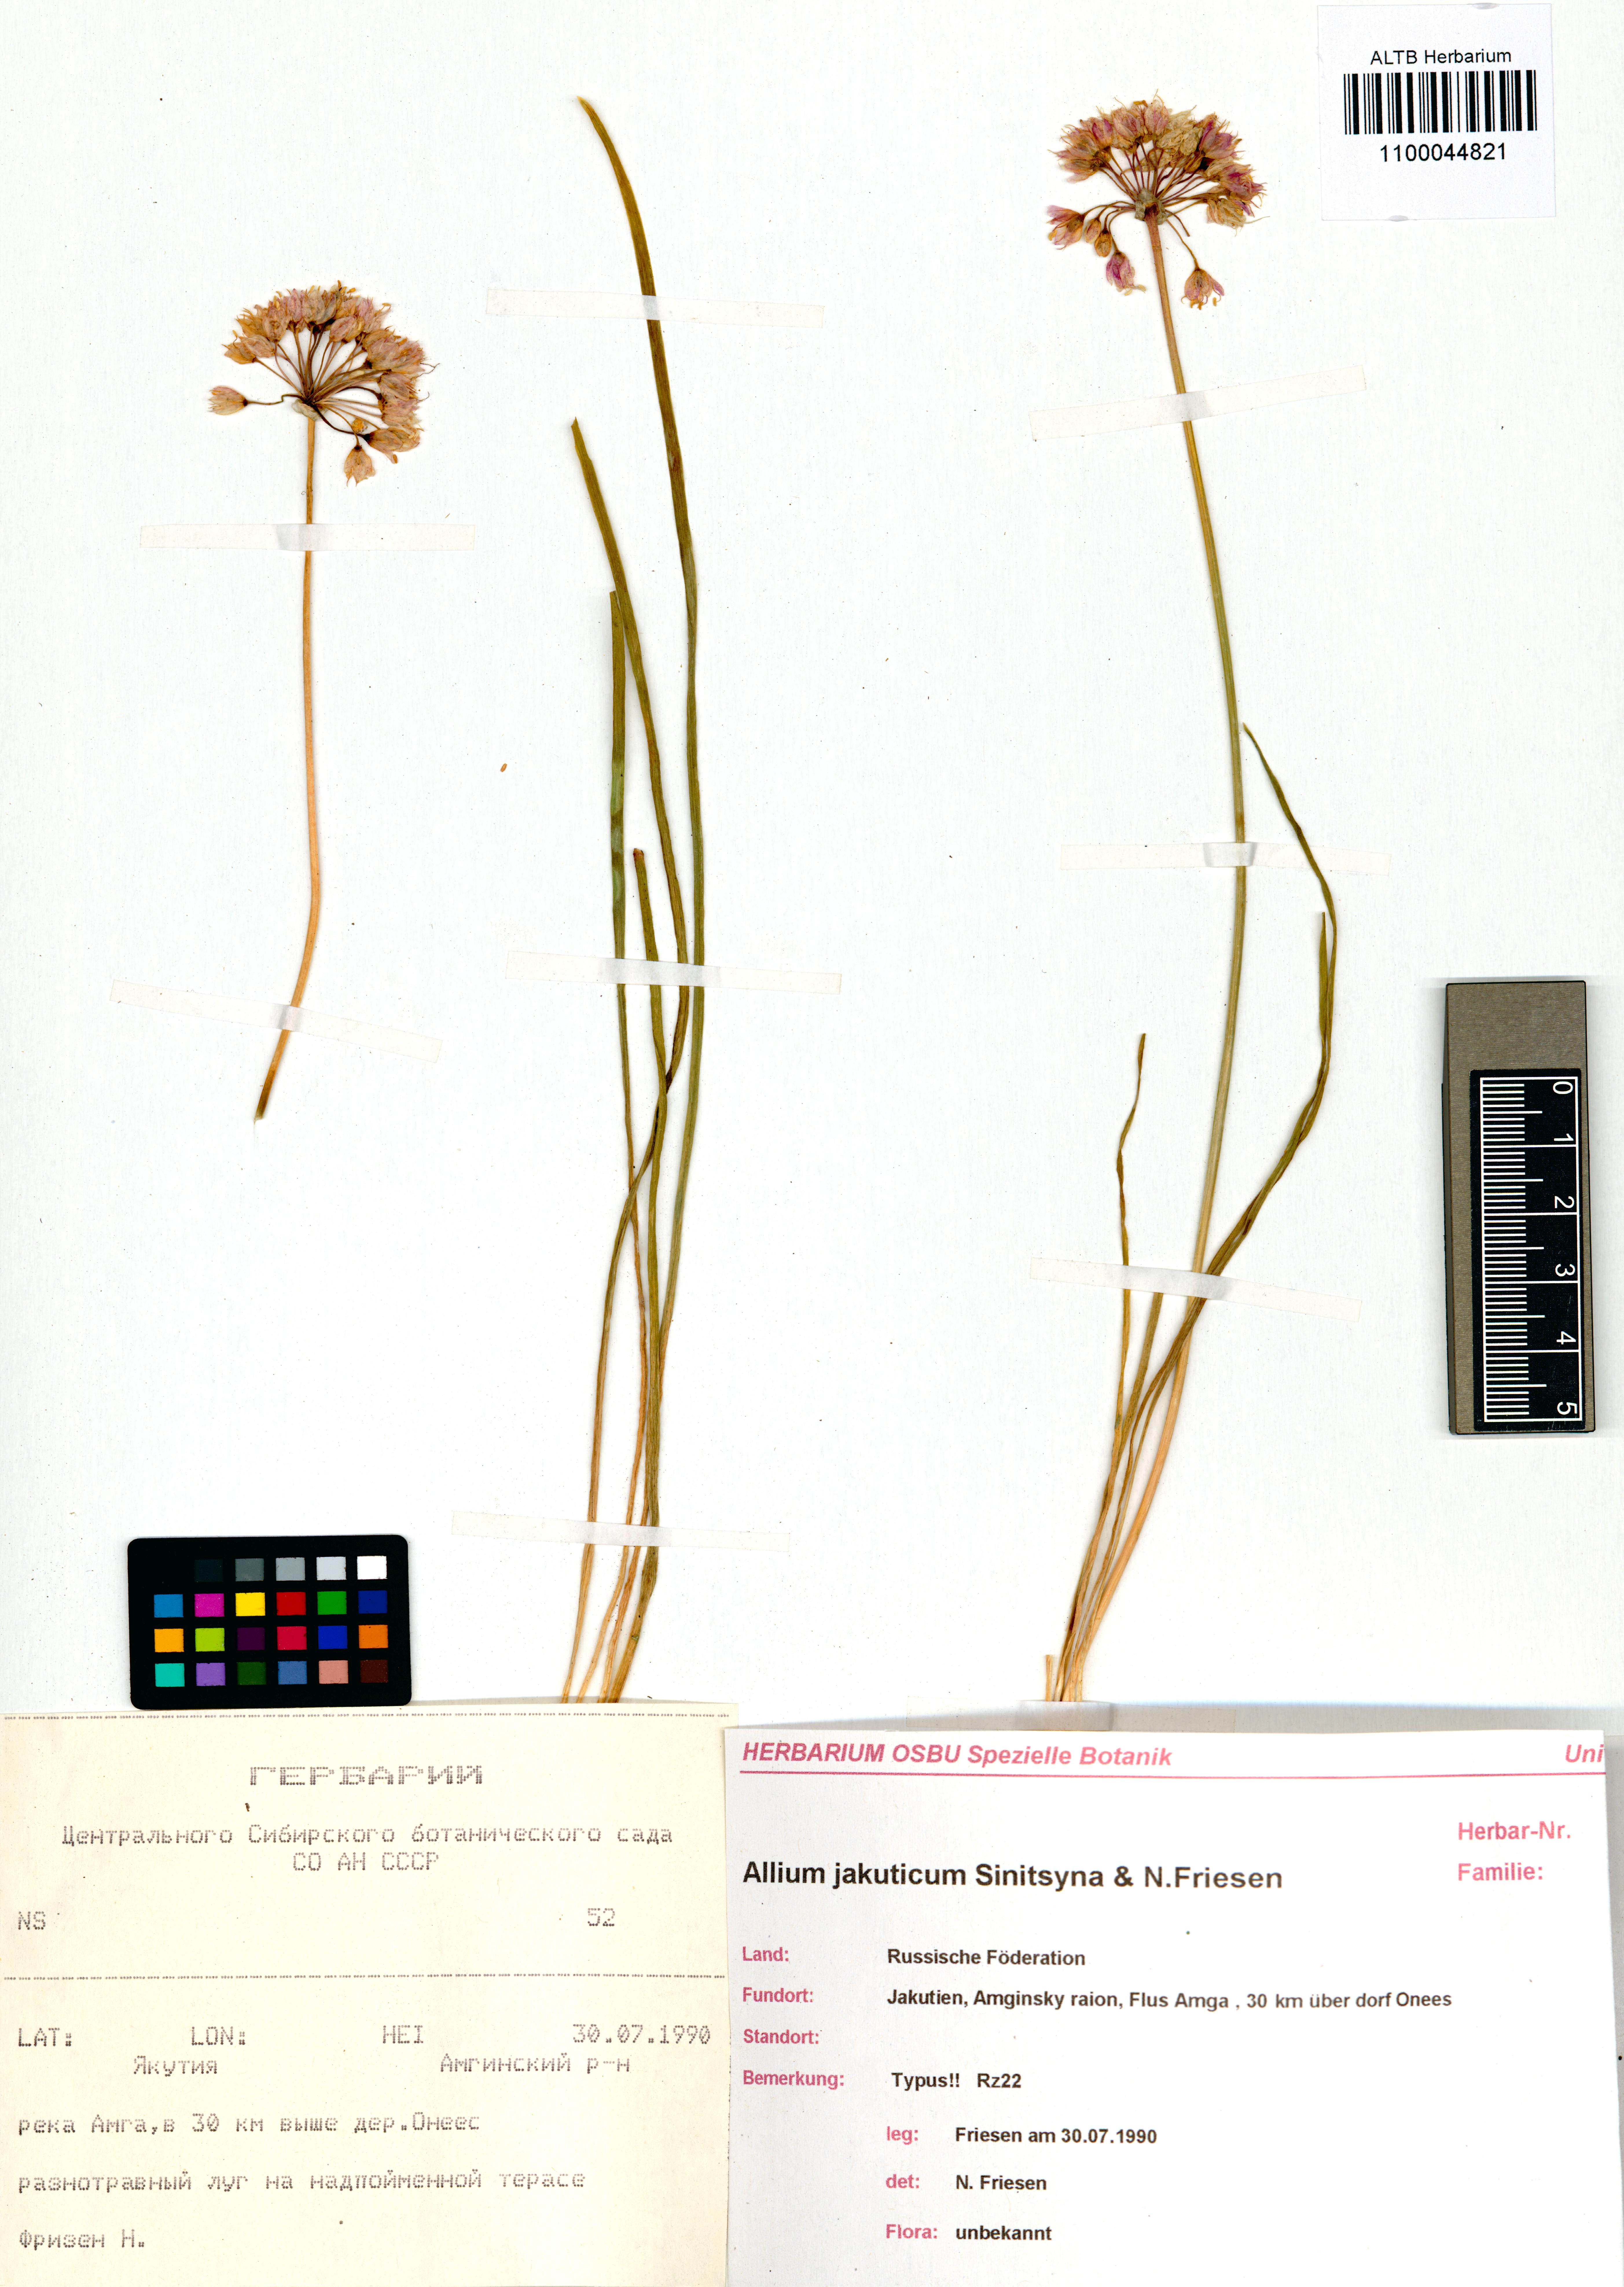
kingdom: Plantae
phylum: Tracheophyta
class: Liliopsida
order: Asparagales
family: Amaryllidaceae
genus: Allium
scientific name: Allium jakuticum
